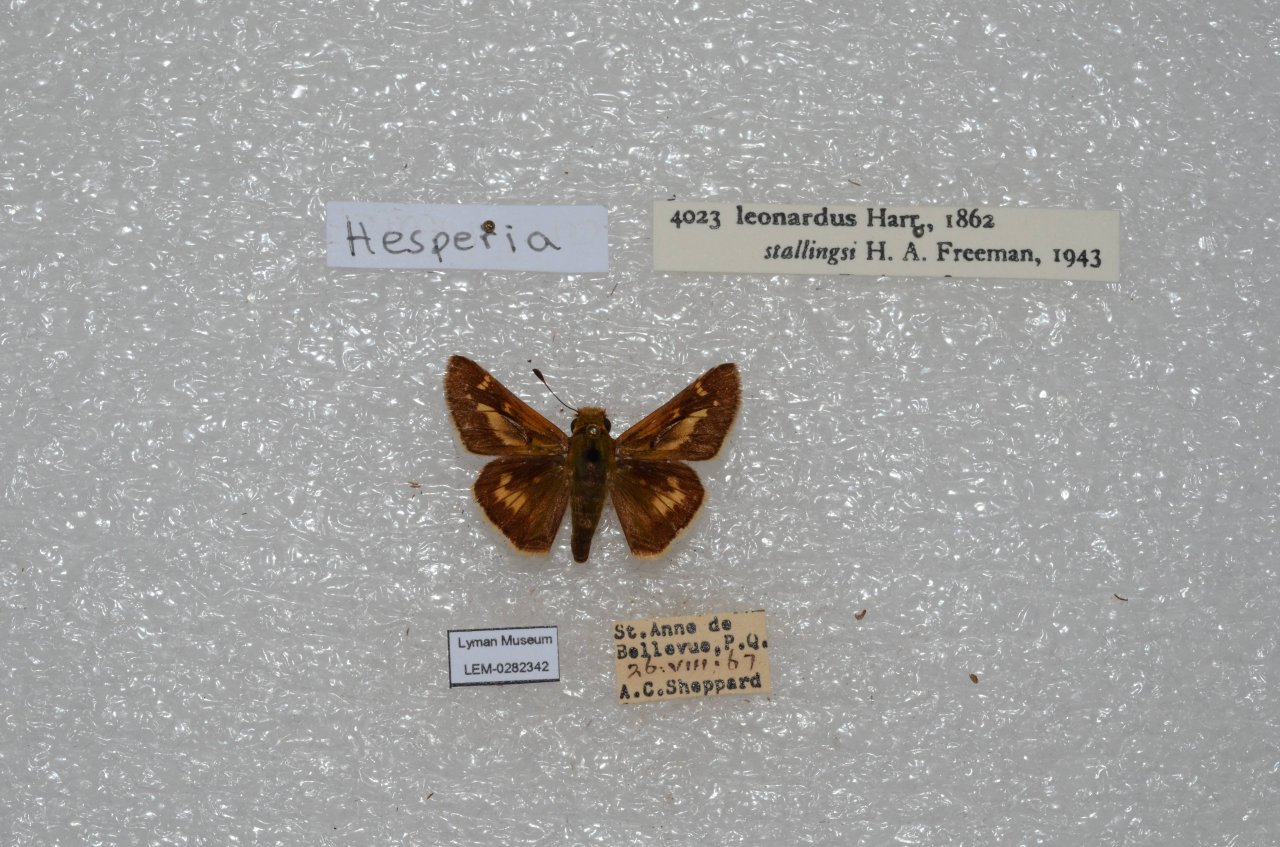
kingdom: Animalia
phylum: Arthropoda
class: Insecta
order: Lepidoptera
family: Hesperiidae
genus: Hesperia
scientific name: Hesperia leonardus
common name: Leonard's Skipper
